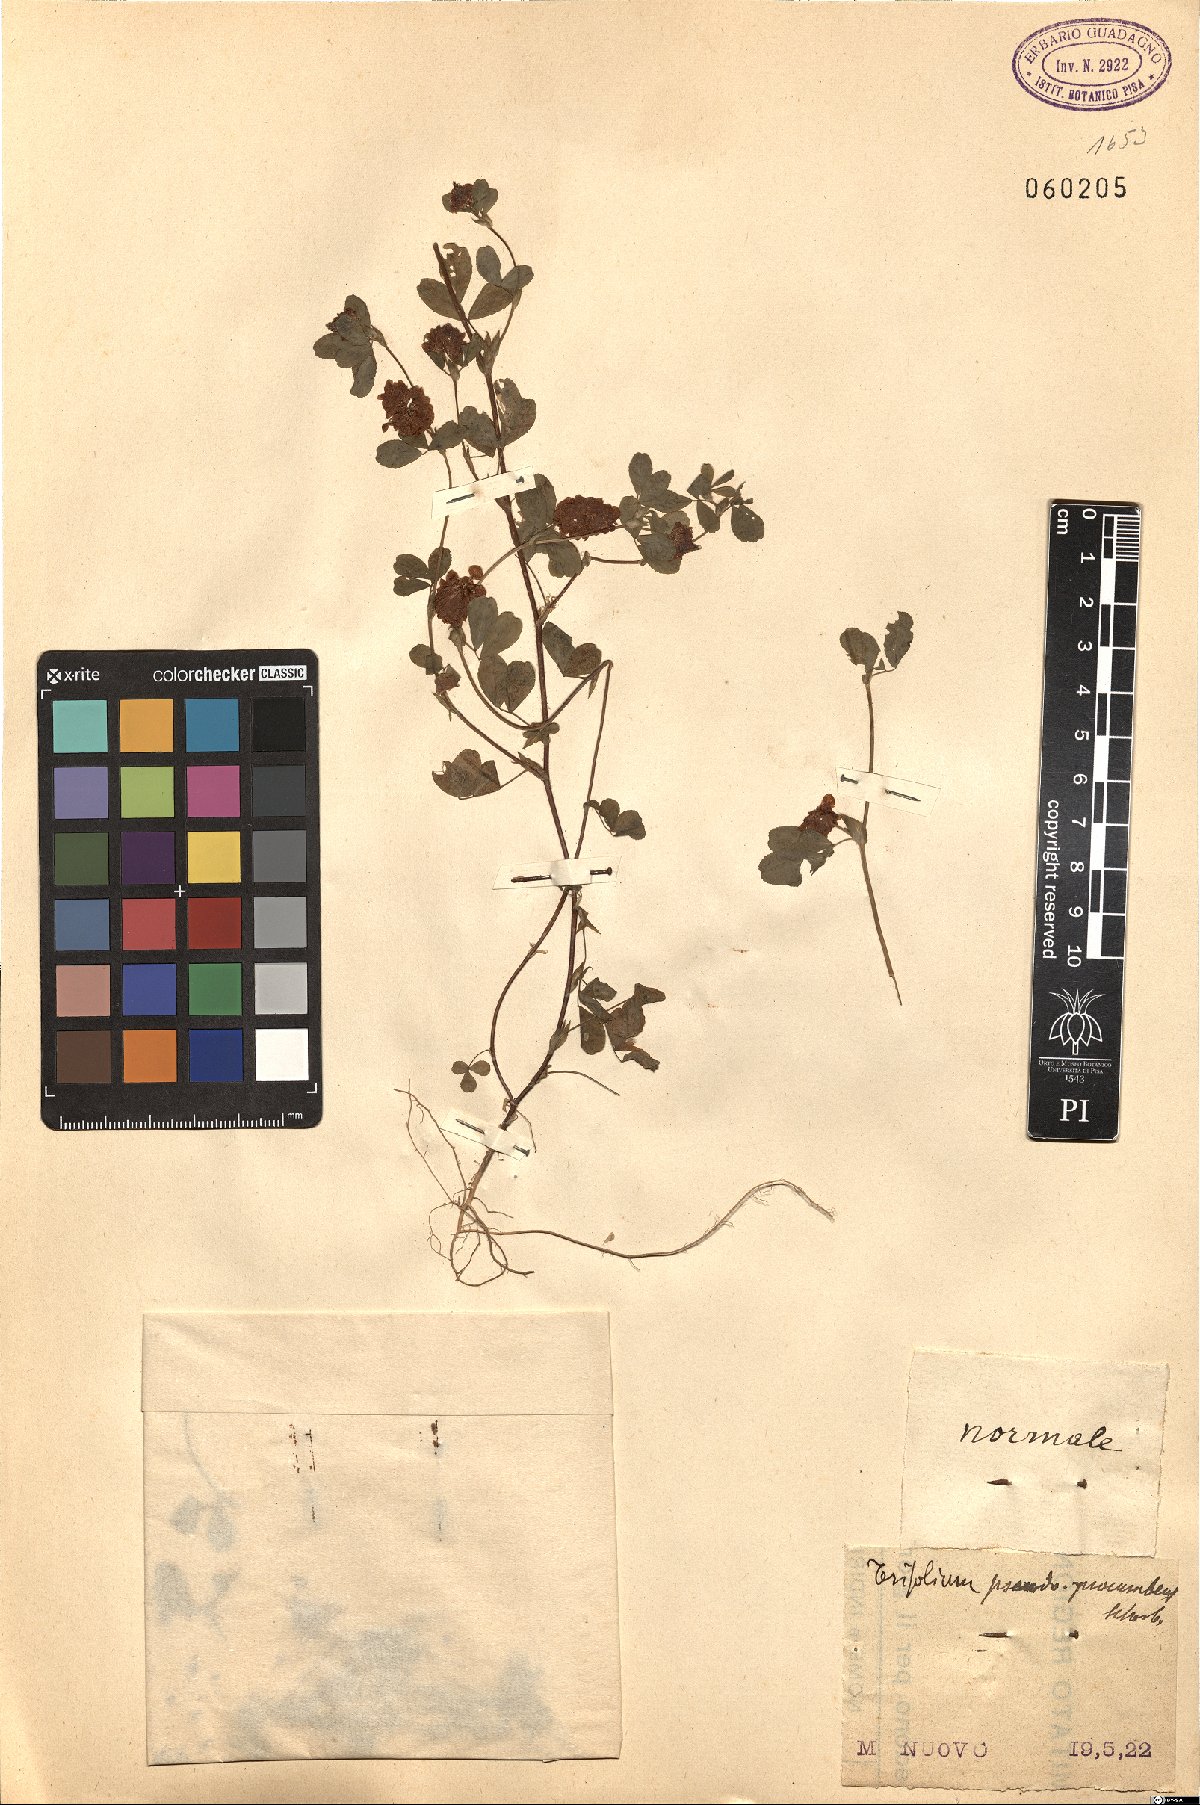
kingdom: Plantae
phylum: Tracheophyta
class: Magnoliopsida
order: Fabales
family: Fabaceae
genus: Trifolium
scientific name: Trifolium campestre
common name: Field clover
